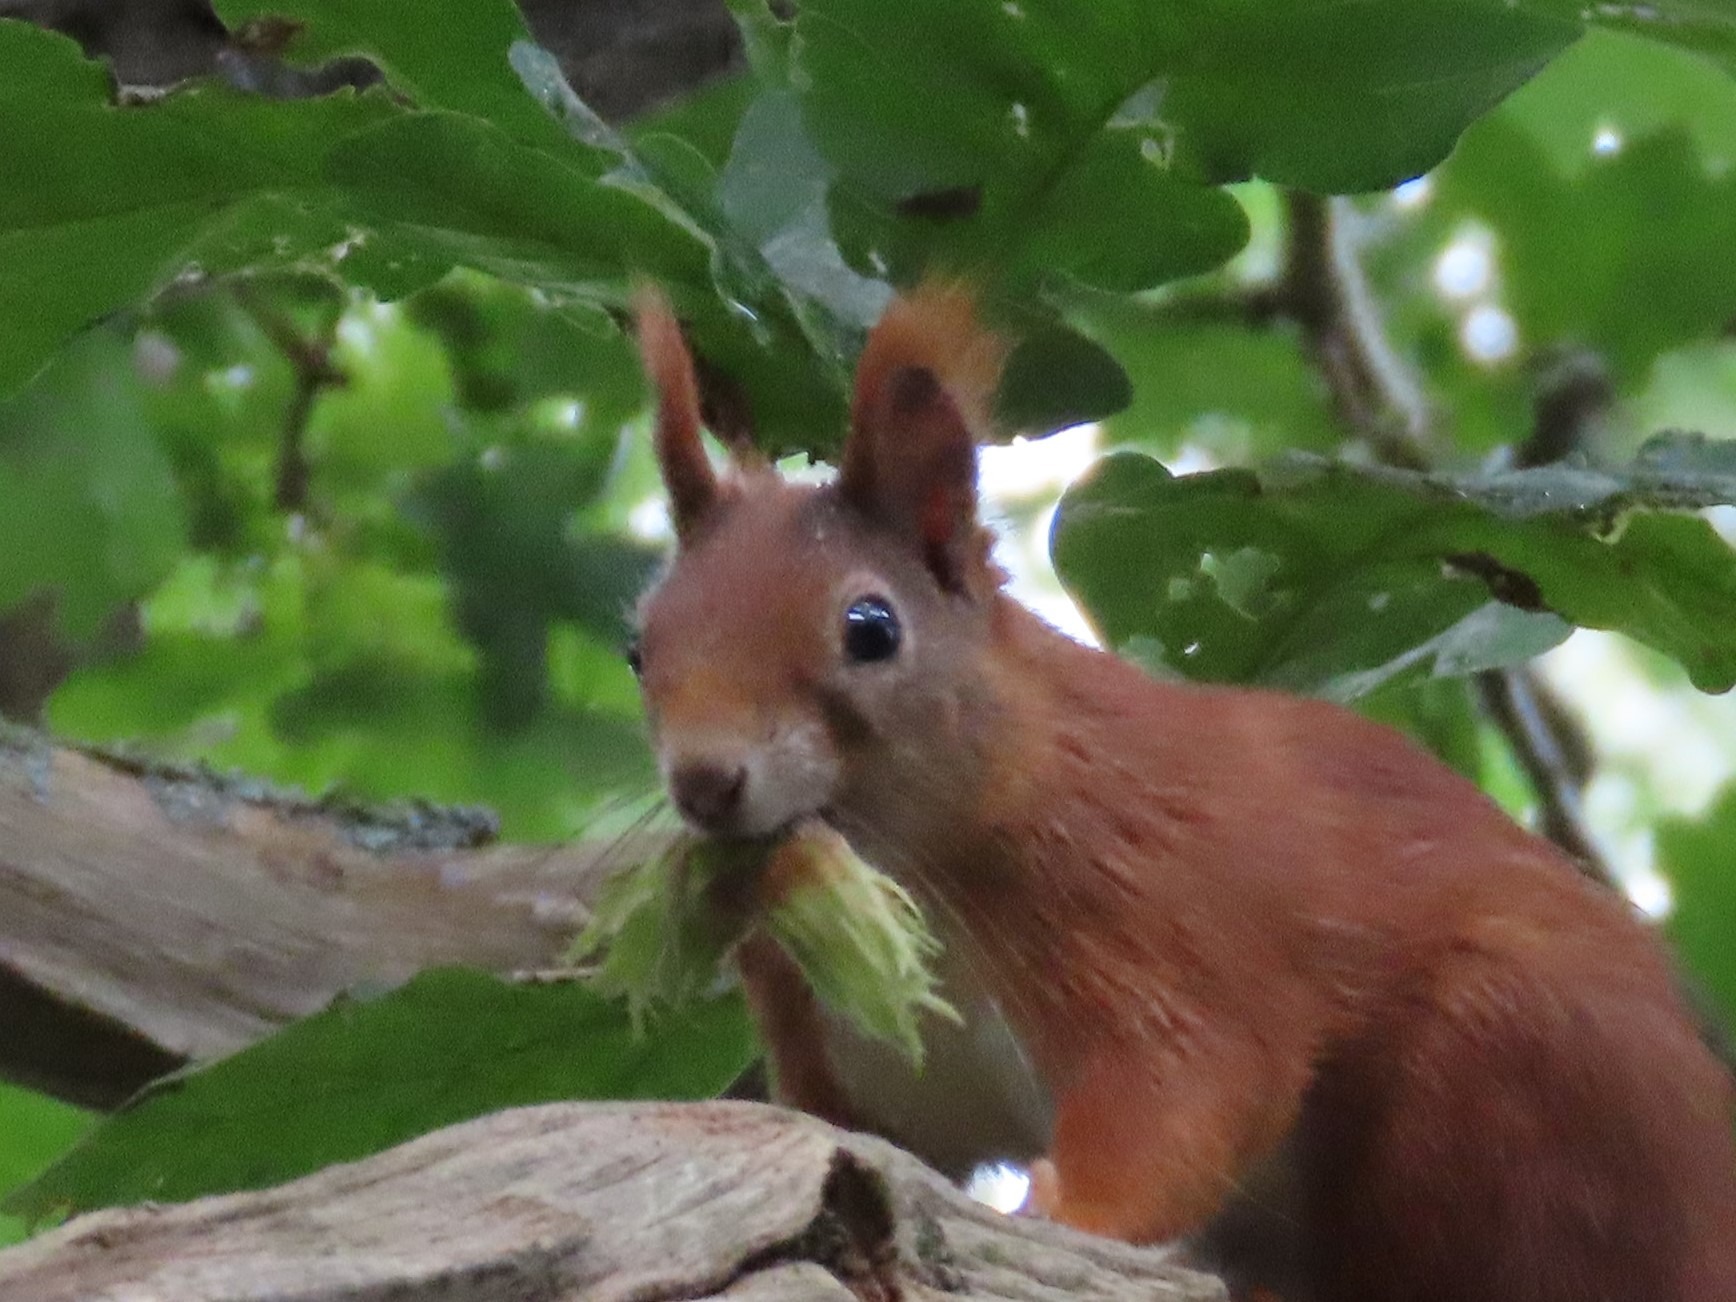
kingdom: Animalia
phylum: Chordata
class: Mammalia
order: Rodentia
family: Sciuridae
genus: Sciurus
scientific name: Sciurus vulgaris
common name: Egern
